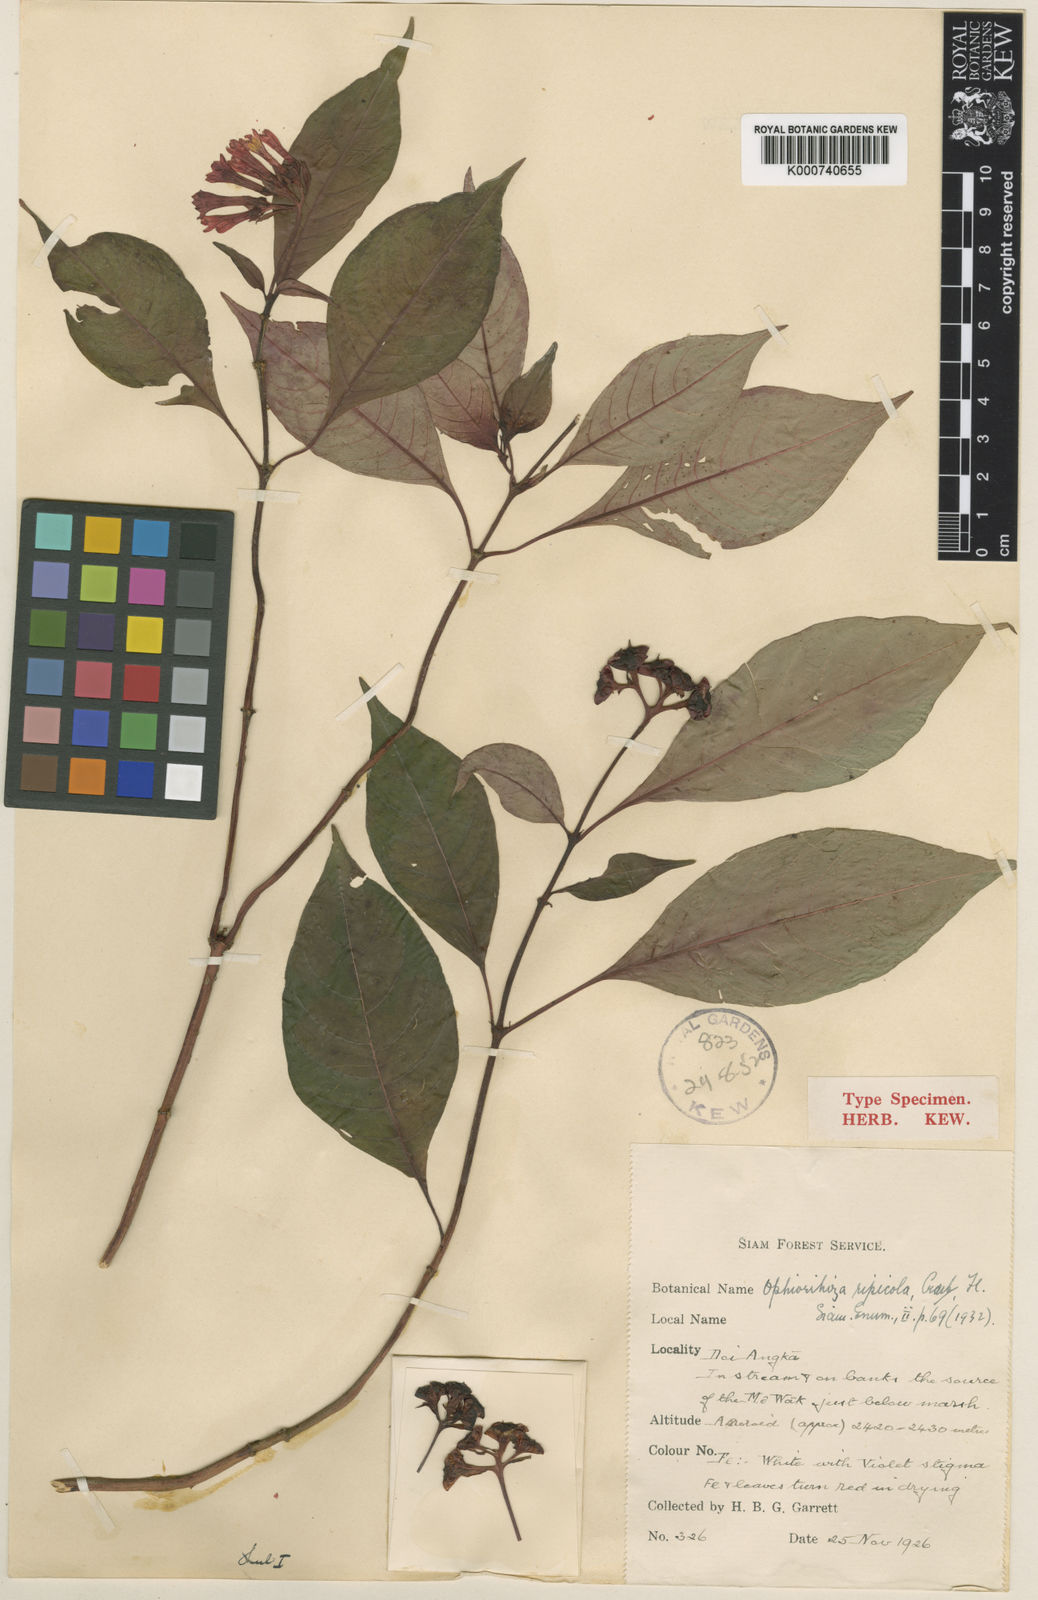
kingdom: Plantae
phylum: Tracheophyta
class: Magnoliopsida
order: Gentianales
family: Rubiaceae
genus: Ophiorrhiza
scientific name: Ophiorrhiza ripicola
